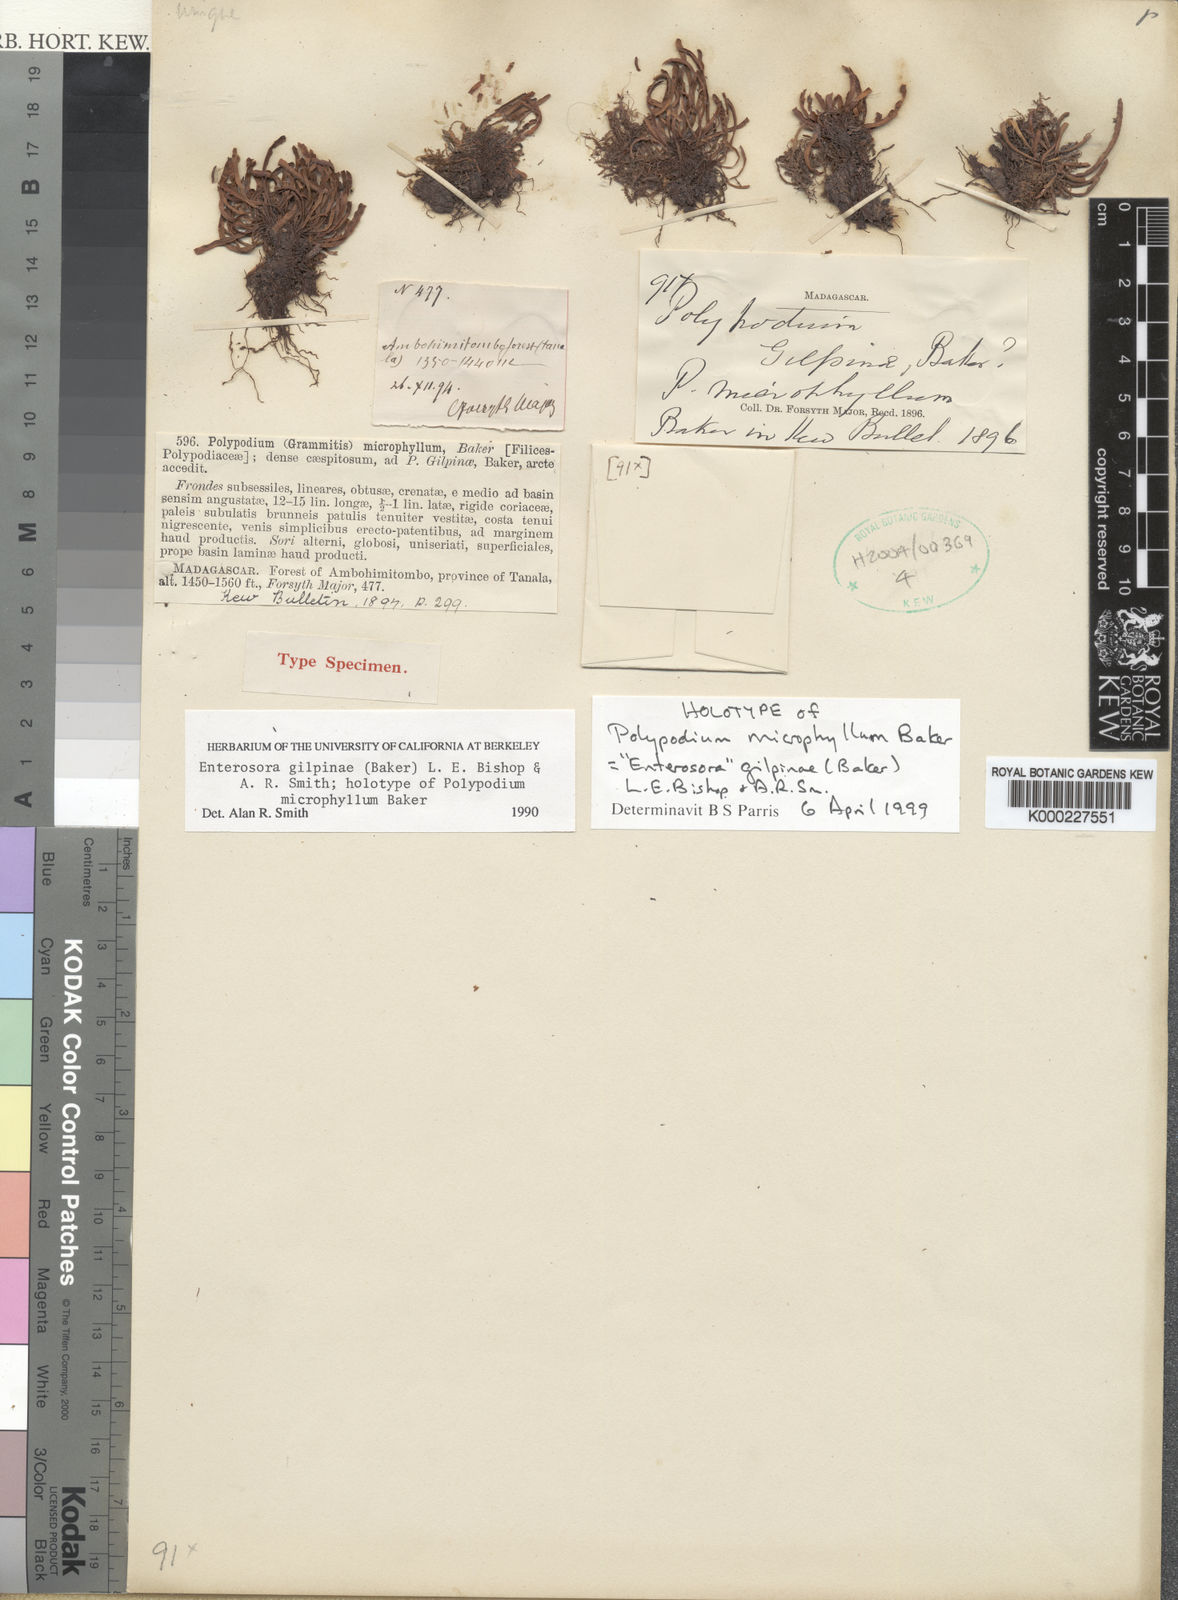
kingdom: Plantae
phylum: Tracheophyta
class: Polypodiopsida
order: Polypodiales
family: Polypodiaceae
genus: Parrisia
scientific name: Parrisia gilpiniae
